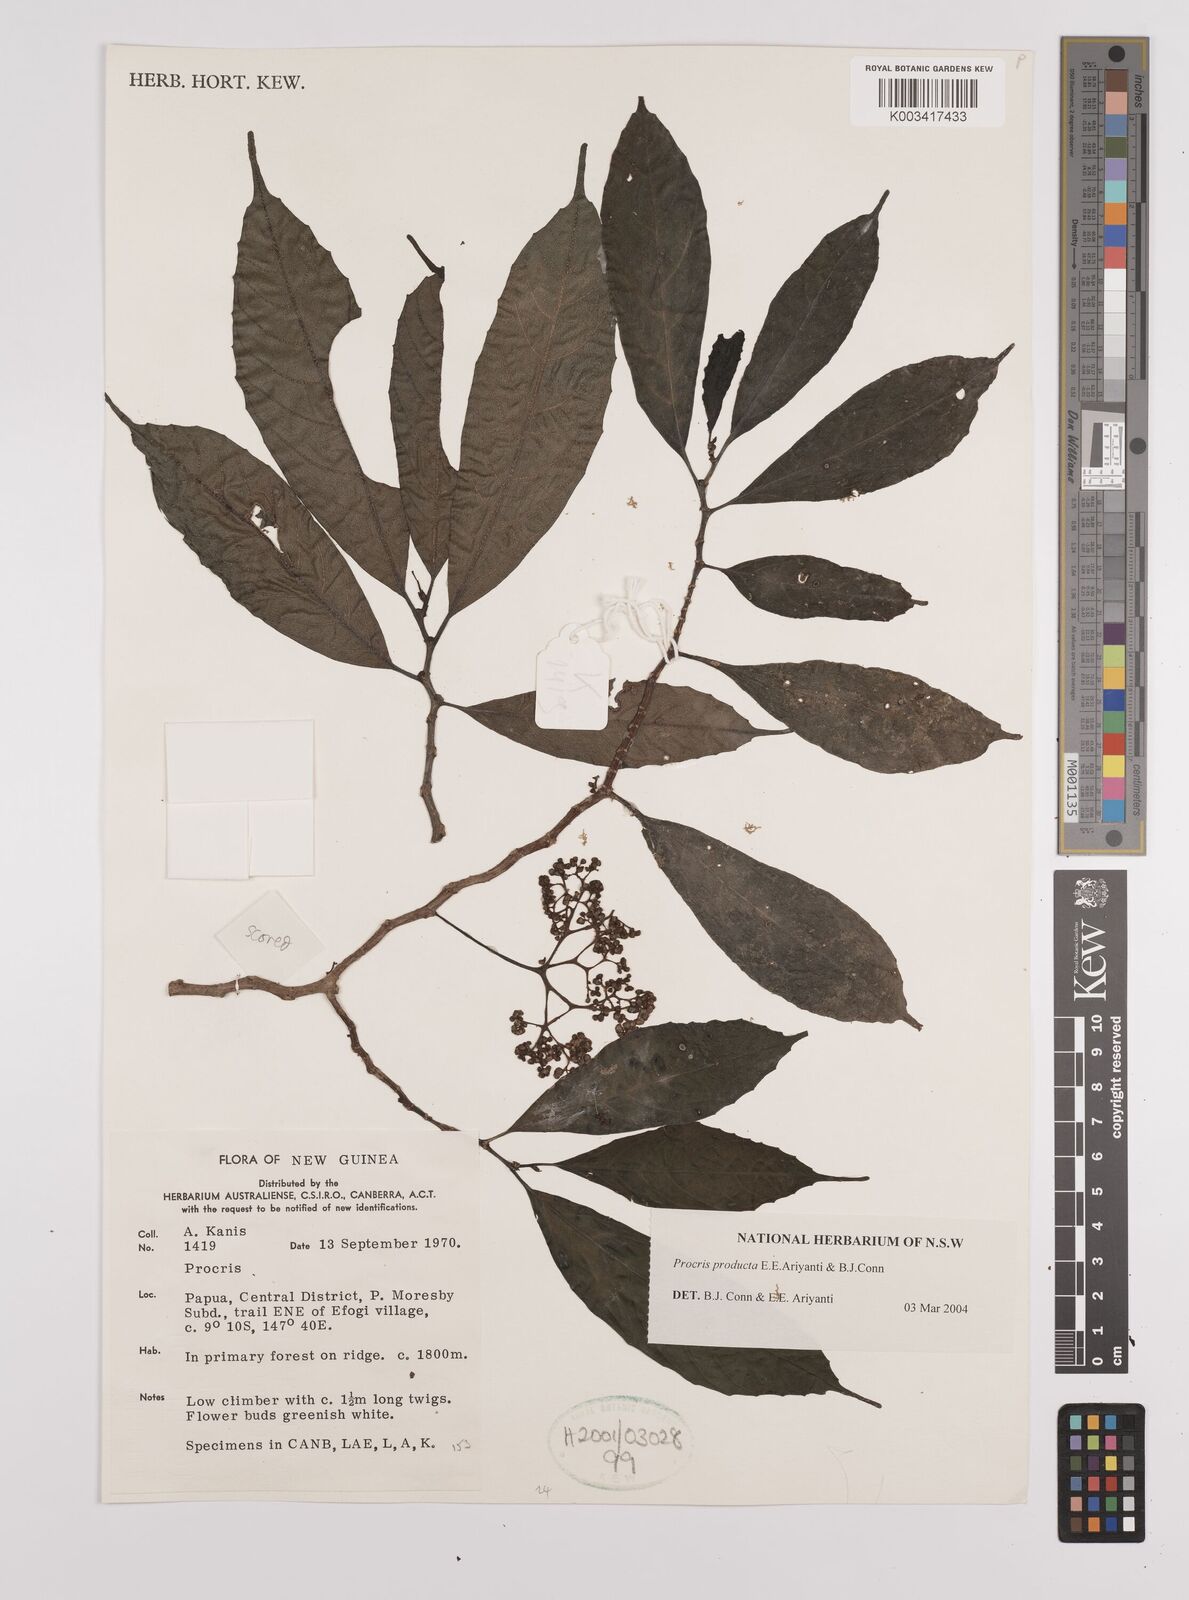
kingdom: Plantae
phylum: Tracheophyta
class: Magnoliopsida
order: Rosales
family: Urticaceae
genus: Procris
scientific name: Procris
